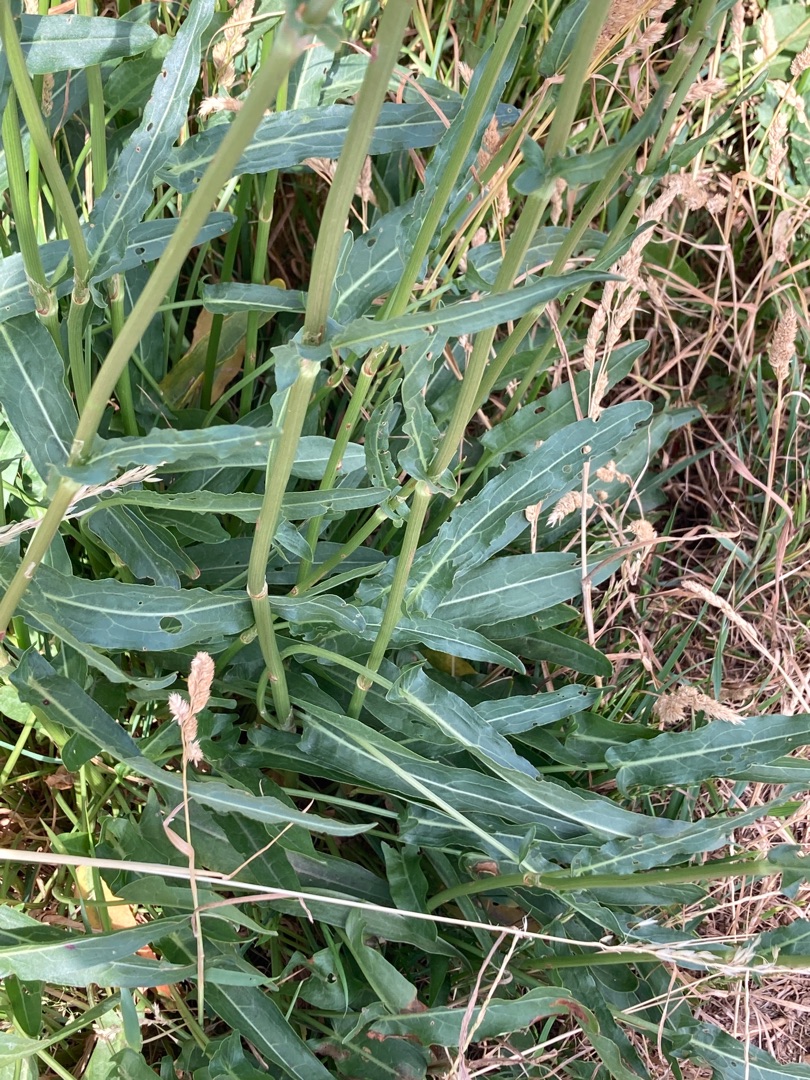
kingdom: Plantae
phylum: Tracheophyta
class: Magnoliopsida
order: Caryophyllales
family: Polygonaceae
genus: Rumex
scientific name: Rumex thyrsiflorus
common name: Dusk-syre
